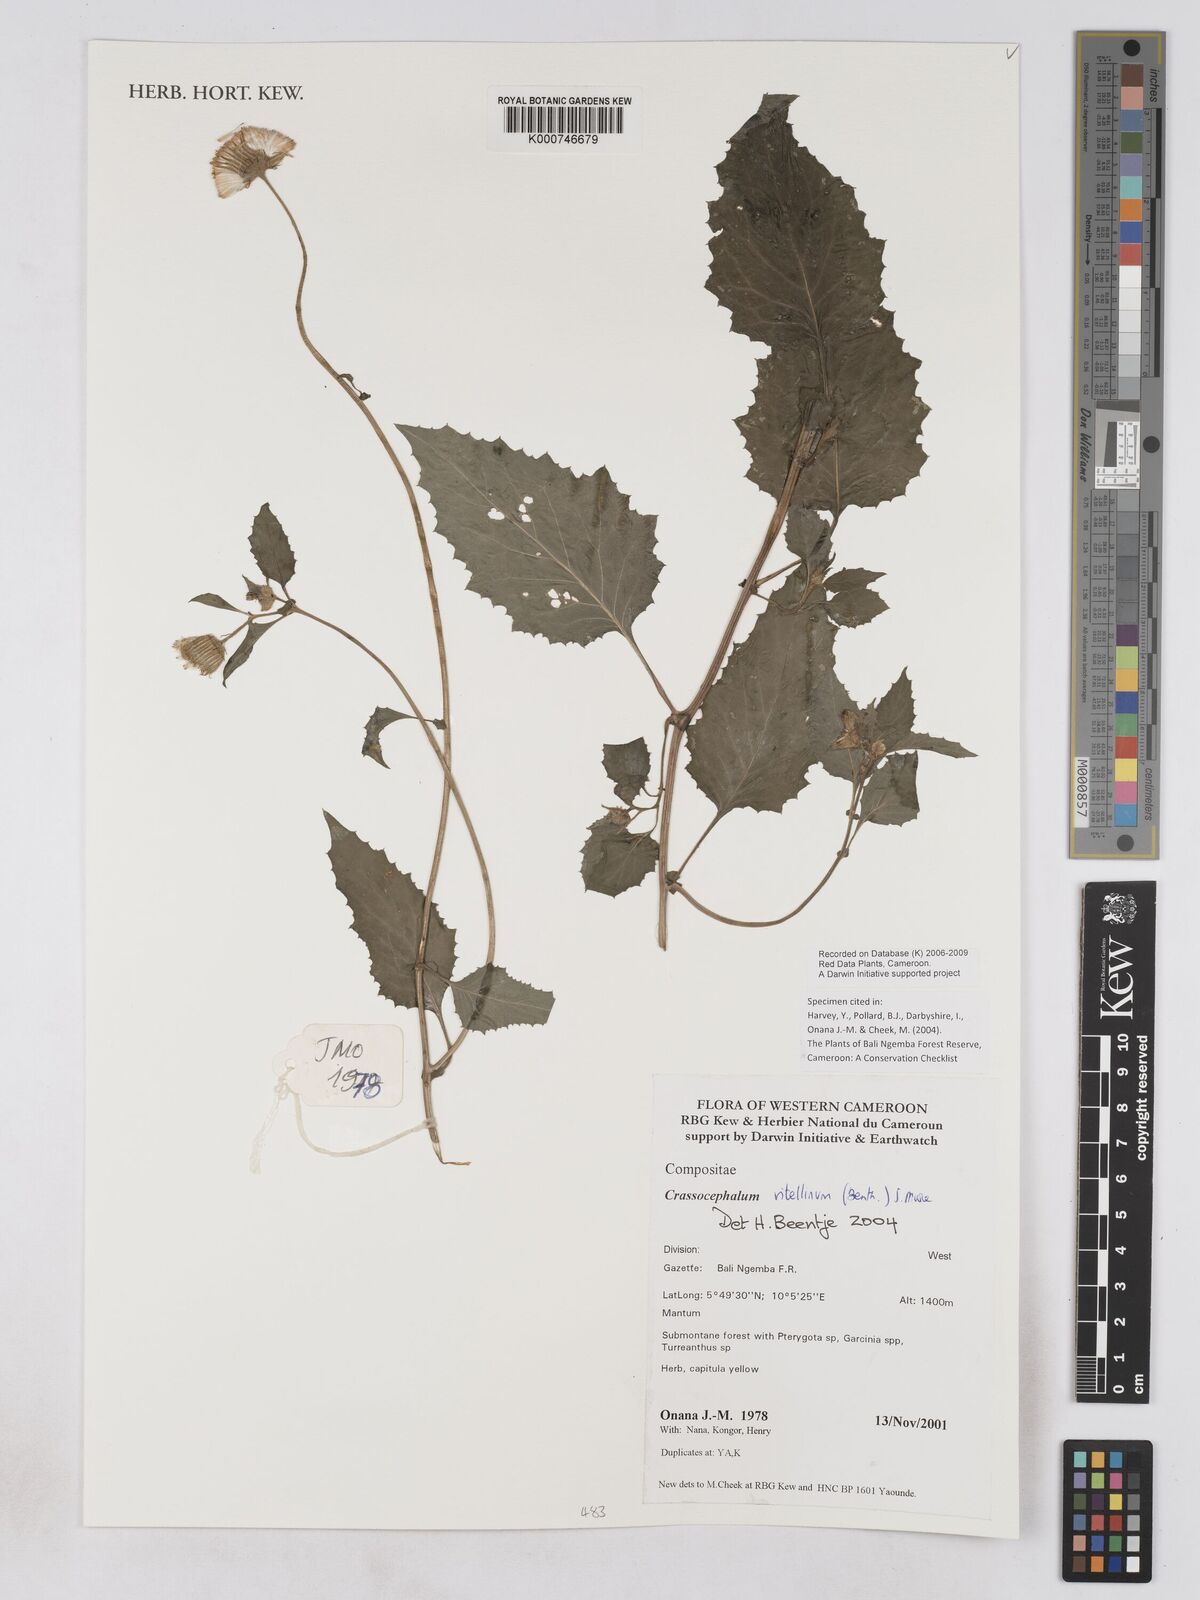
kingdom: Plantae
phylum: Tracheophyta
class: Magnoliopsida
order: Asterales
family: Asteraceae
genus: Crassocephalum
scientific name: Crassocephalum vitellinum
